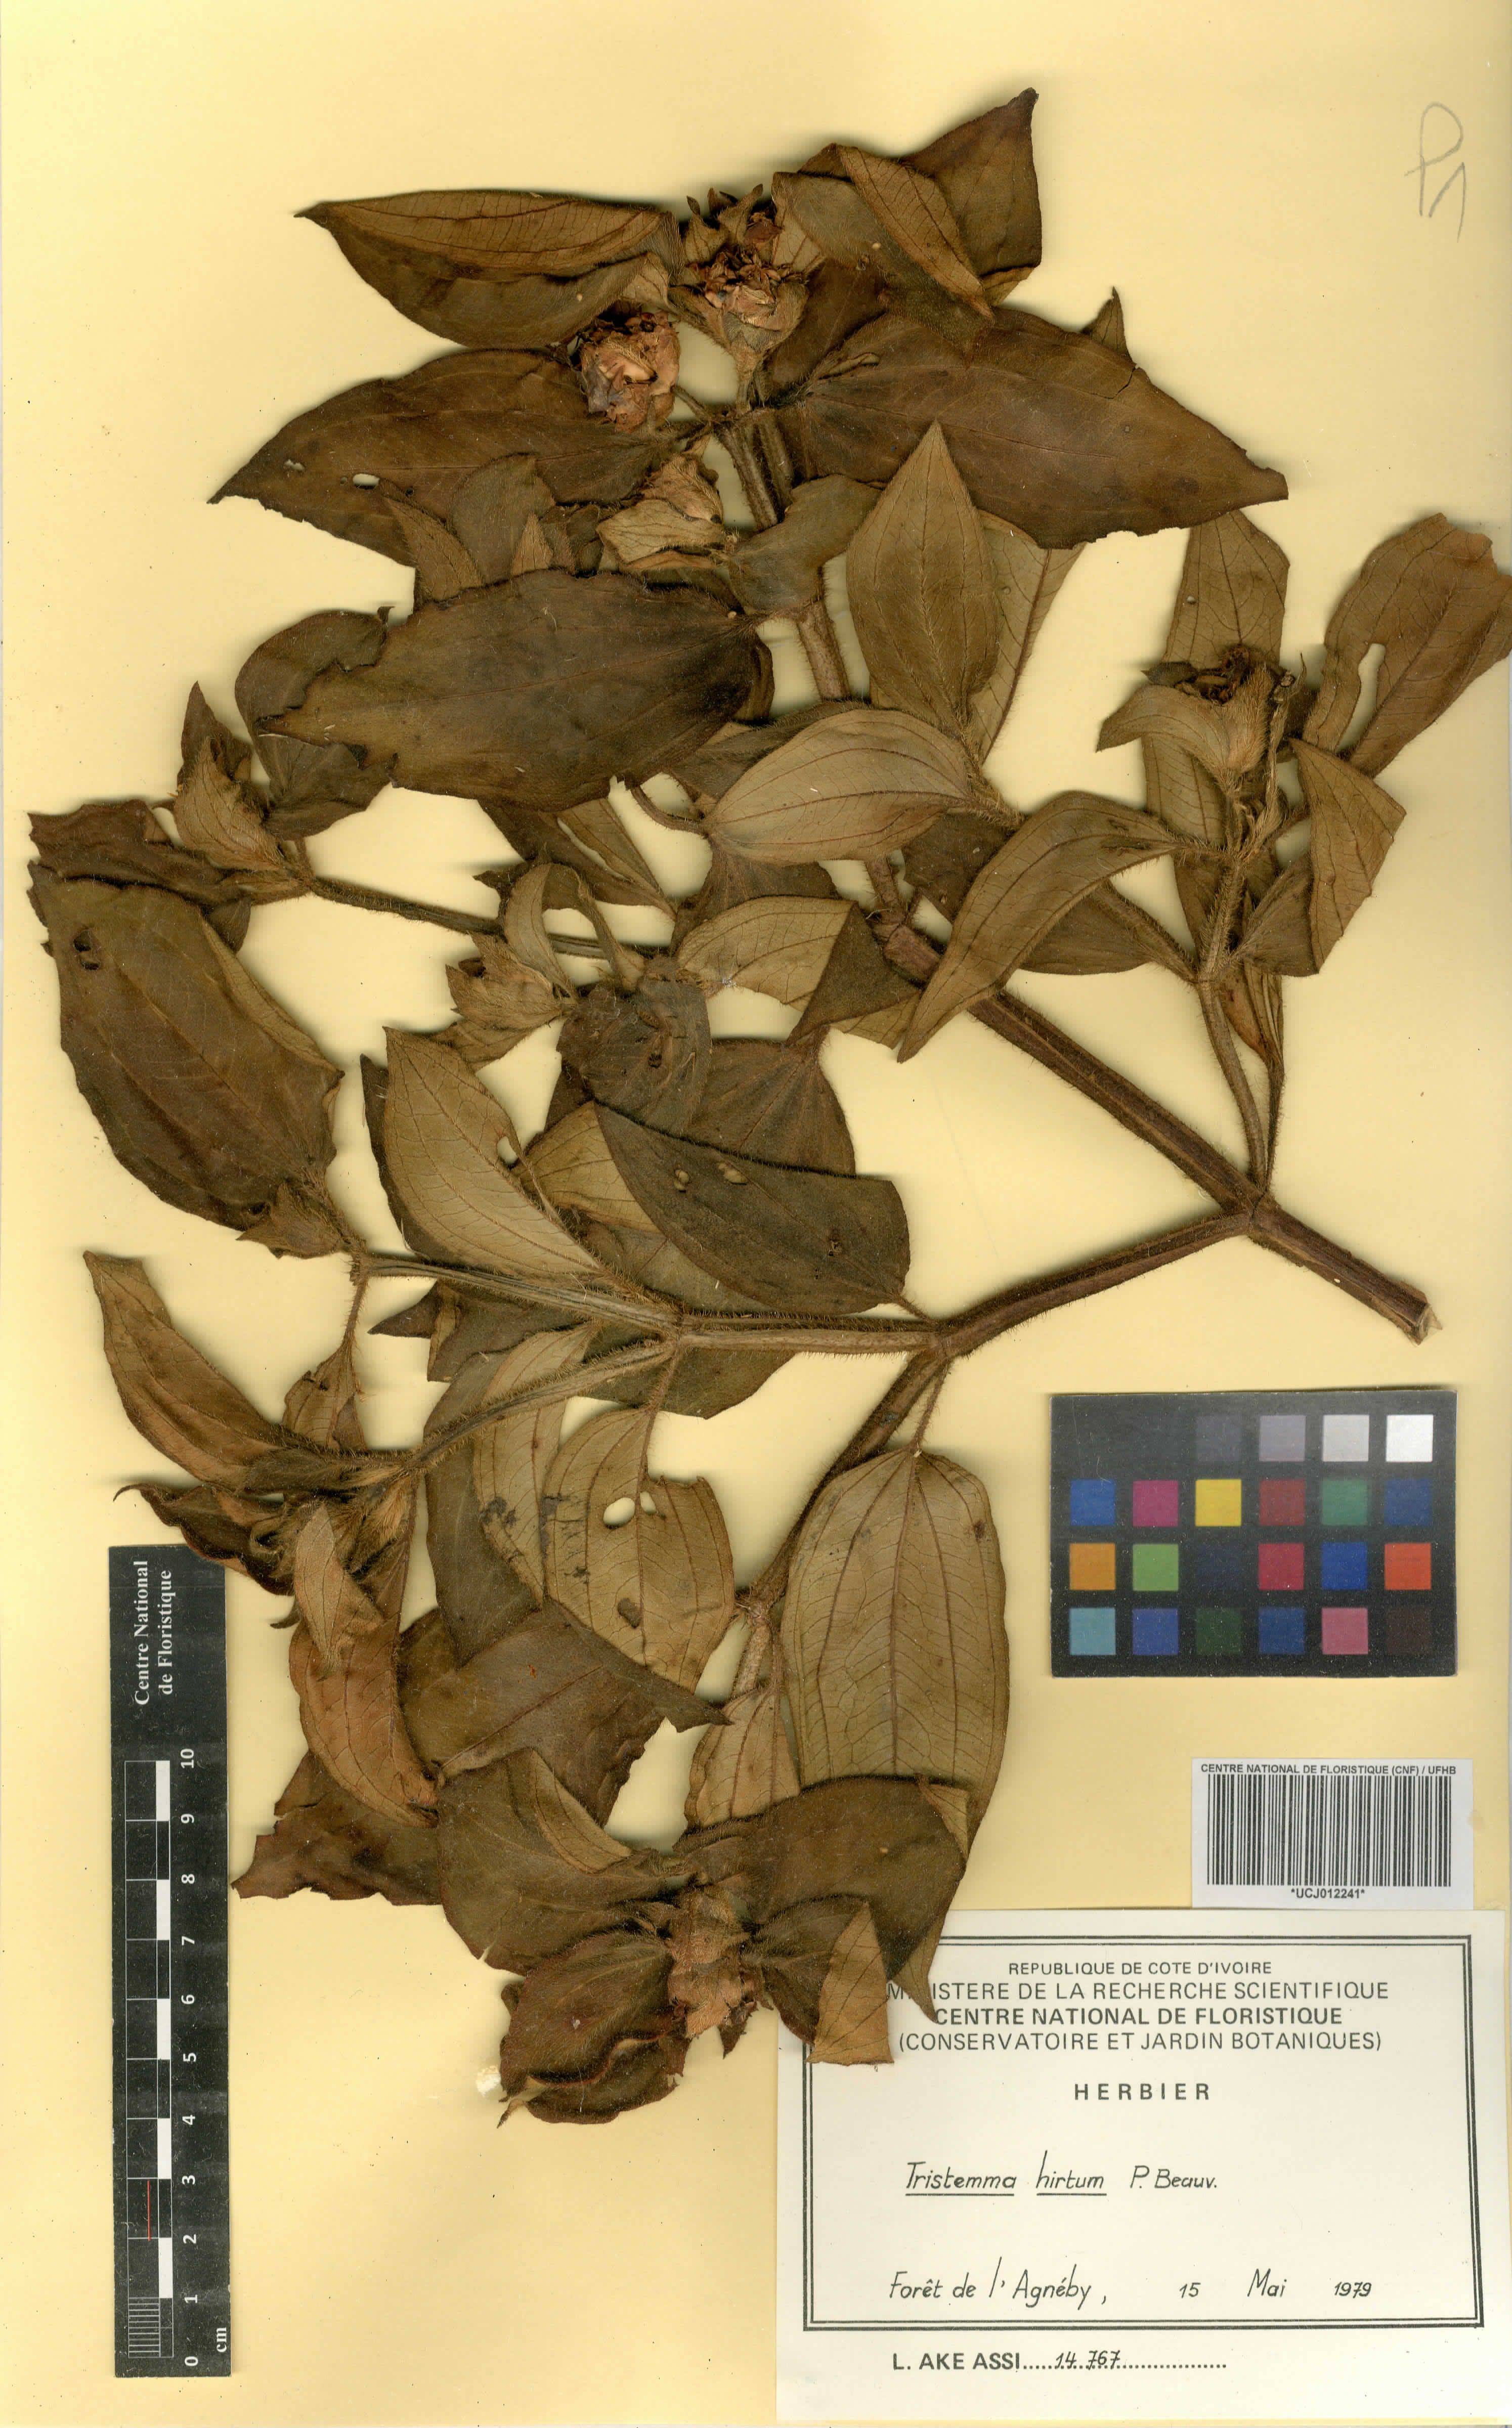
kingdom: Plantae
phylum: Tracheophyta
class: Magnoliopsida
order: Myrtales
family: Melastomataceae
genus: Tristemma
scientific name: Tristemma hirtum
